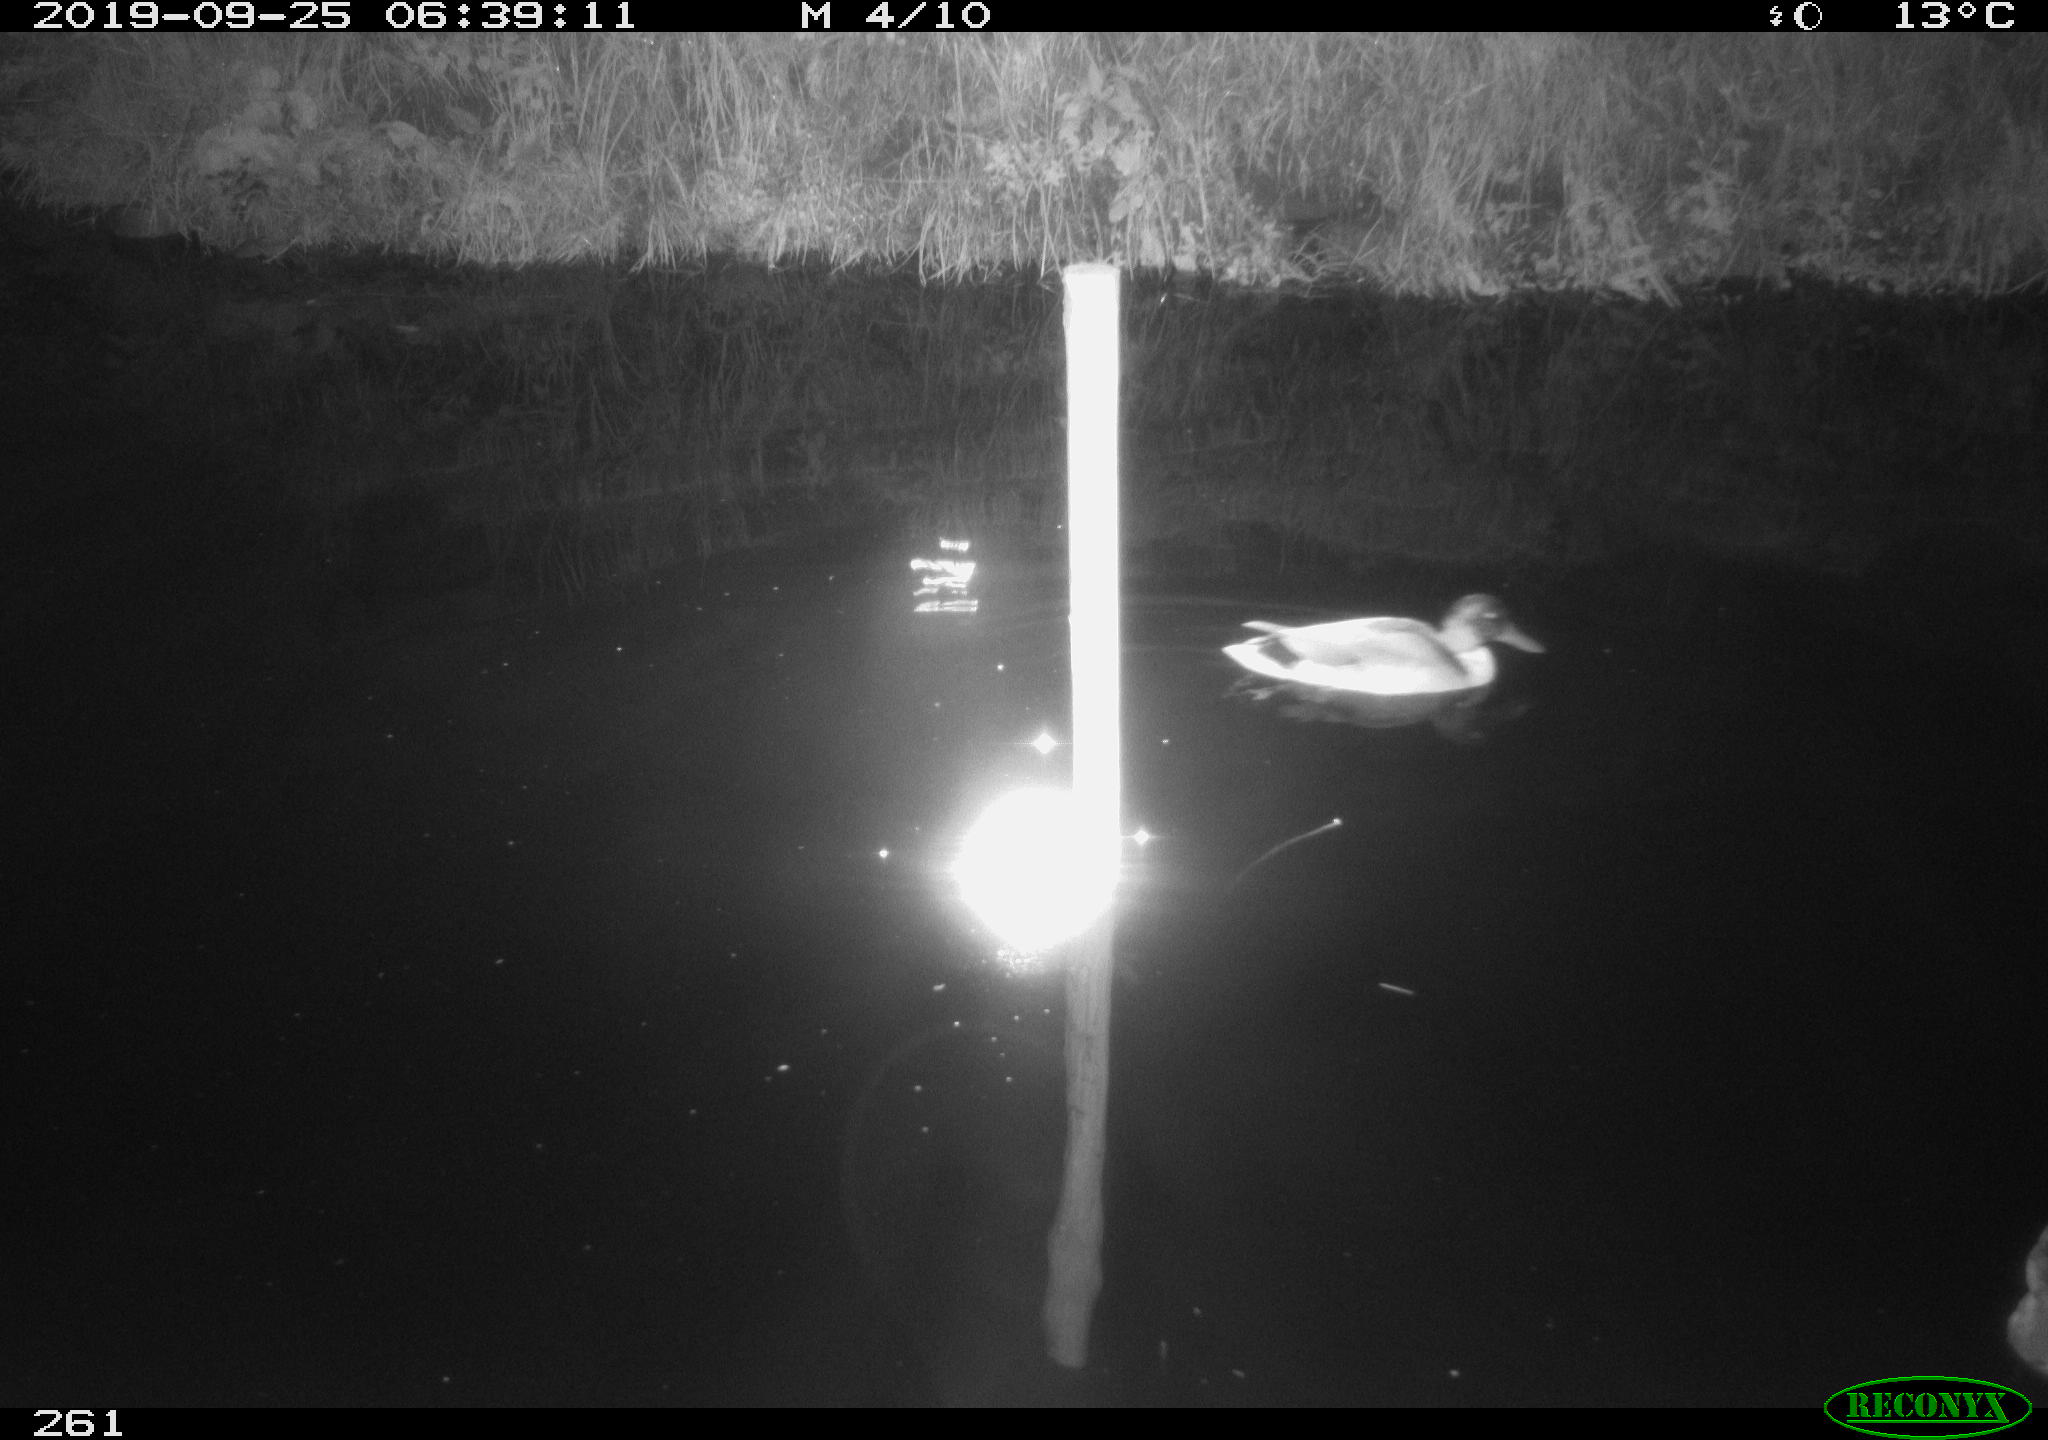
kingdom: Animalia
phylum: Chordata
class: Aves
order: Anseriformes
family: Anatidae
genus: Anas
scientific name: Anas platyrhynchos
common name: Mallard
